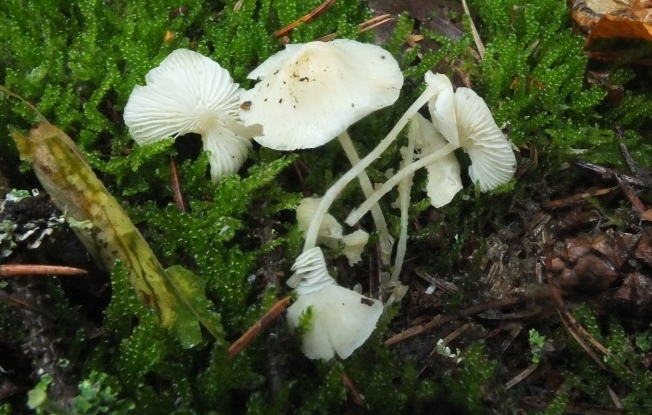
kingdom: Fungi
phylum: Basidiomycota
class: Agaricomycetes
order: Agaricales
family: Mycenaceae
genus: Hemimycena
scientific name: Hemimycena cucullata
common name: tætbladet huesvamp
